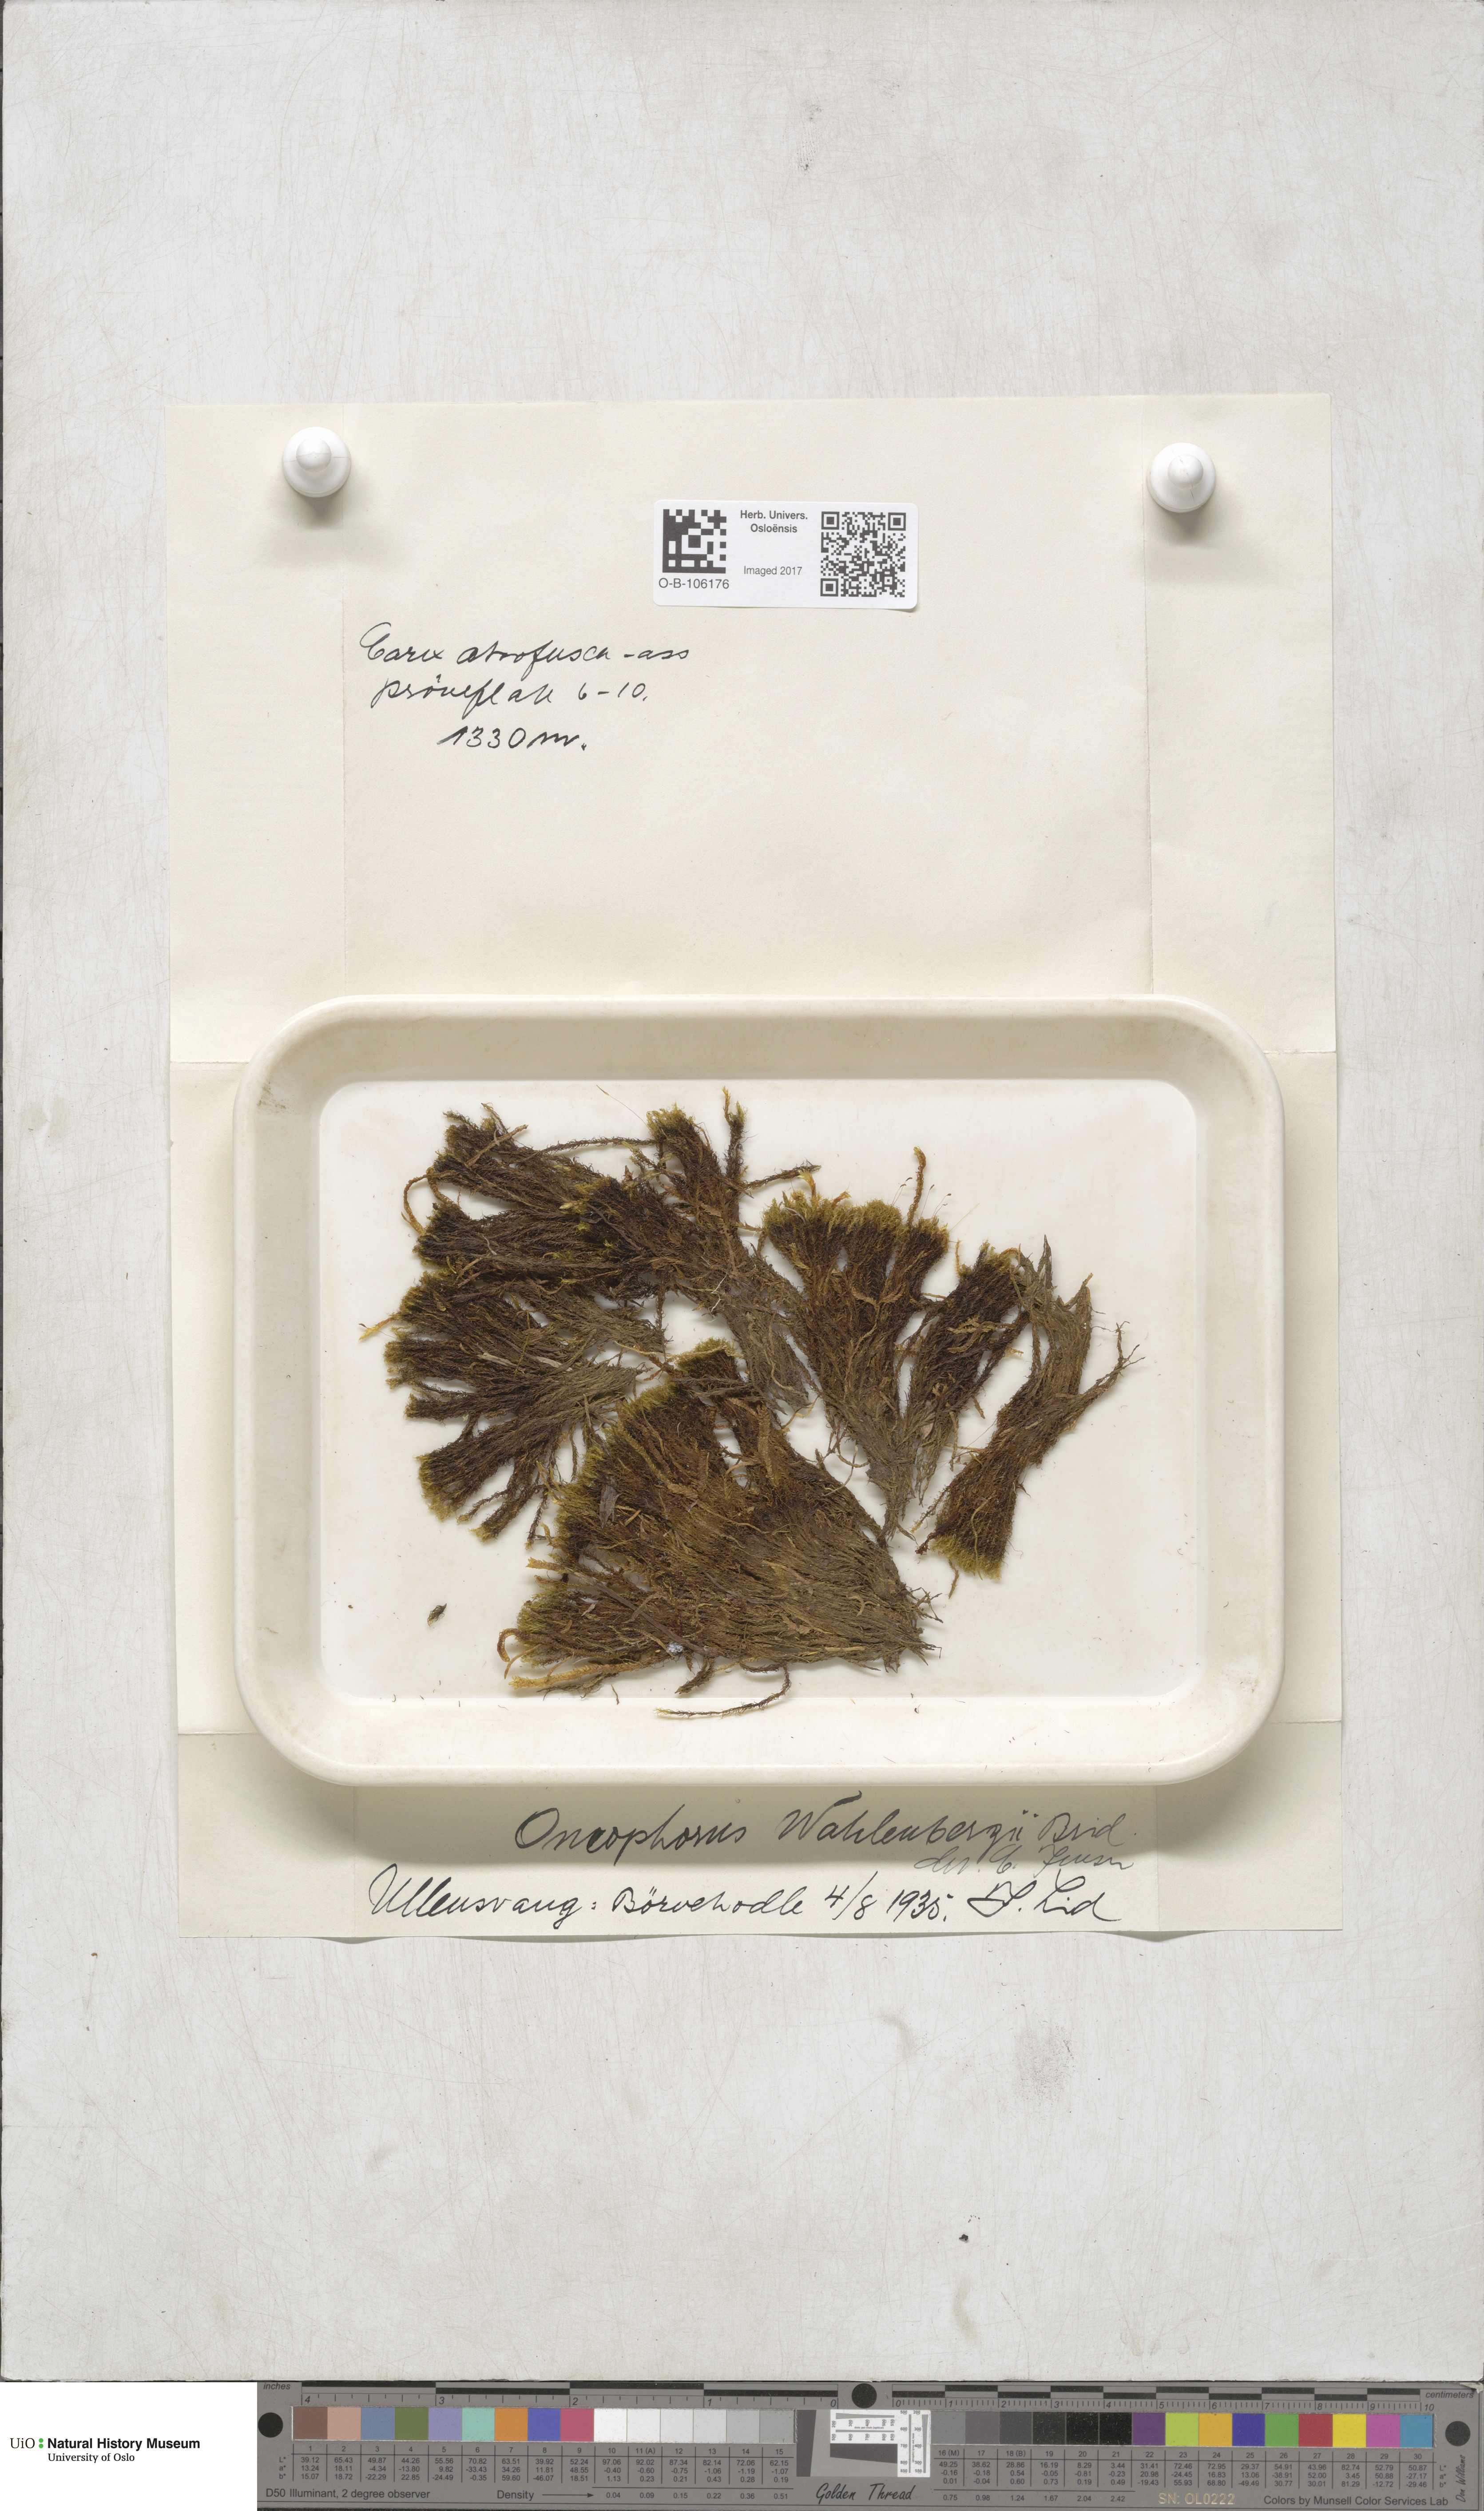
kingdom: Plantae
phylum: Bryophyta
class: Bryopsida
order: Dicranales
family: Rhabdoweisiaceae
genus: Brideliella
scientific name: Brideliella wahlenbergii
